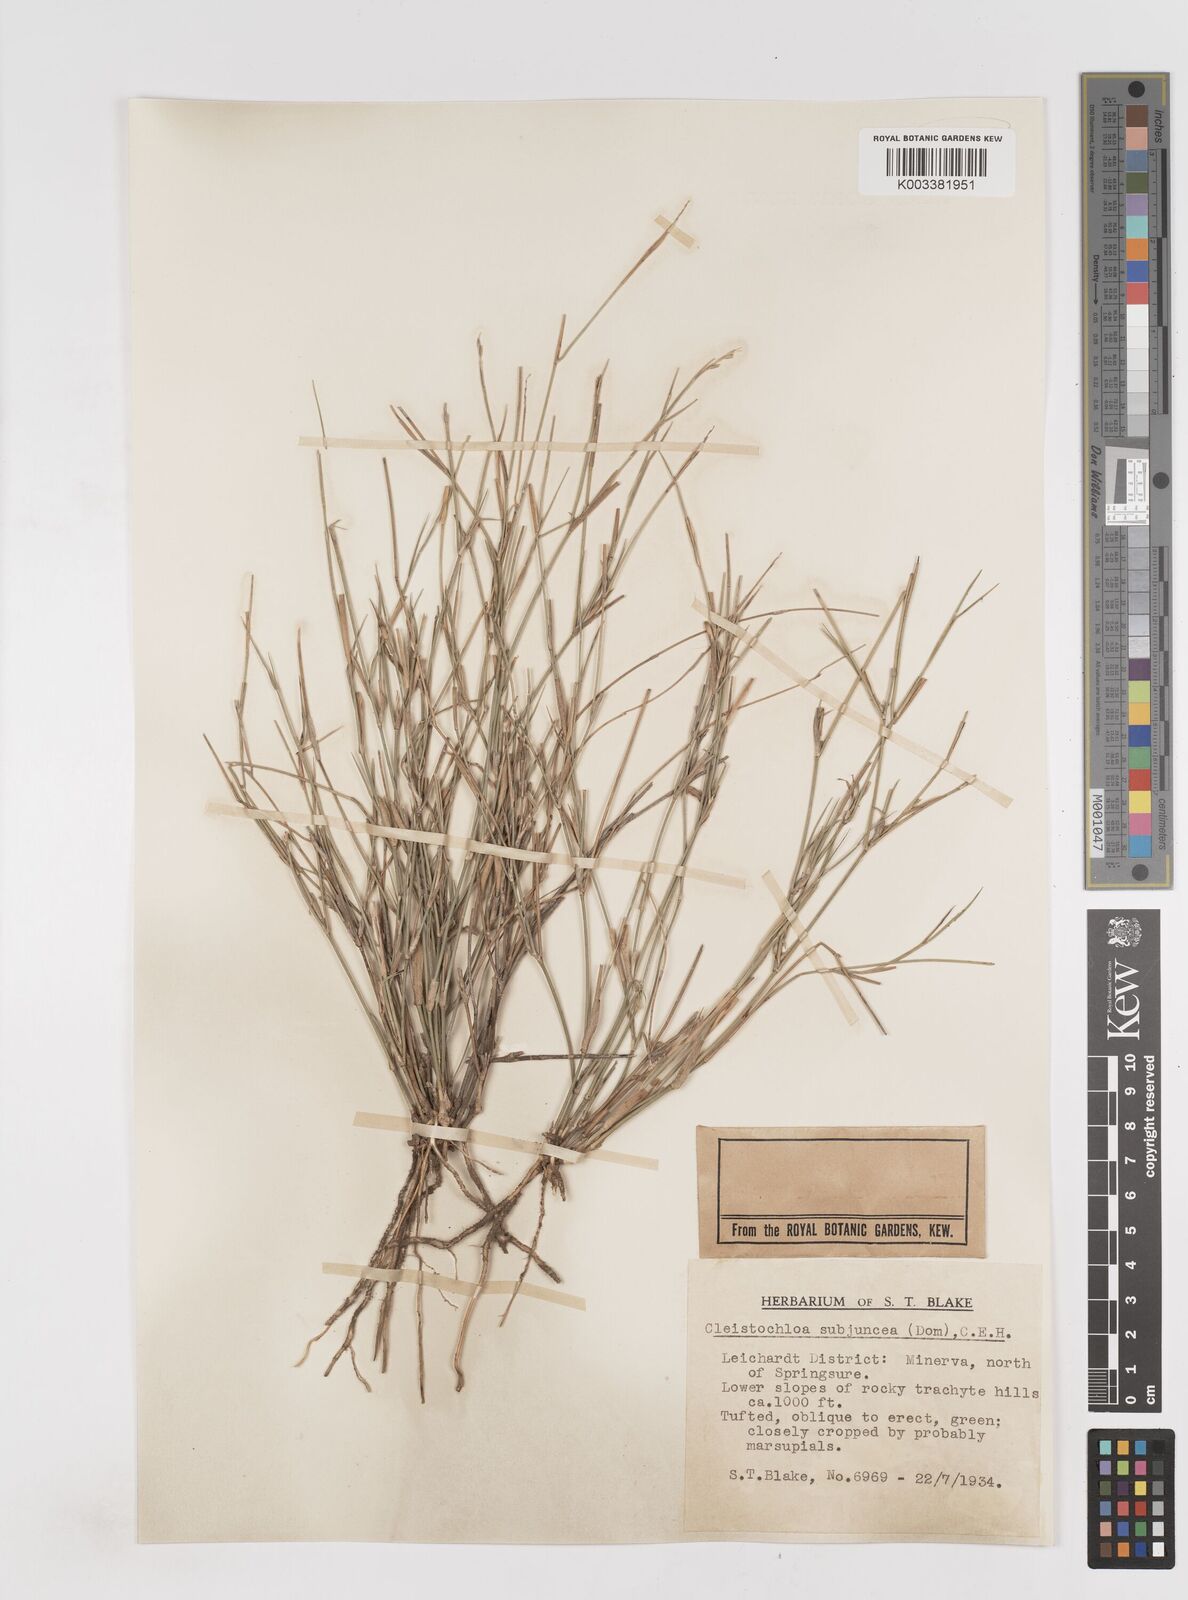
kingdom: Plantae
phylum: Tracheophyta
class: Liliopsida
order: Poales
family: Poaceae
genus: Cleistochloa
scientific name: Cleistochloa subjuncea
